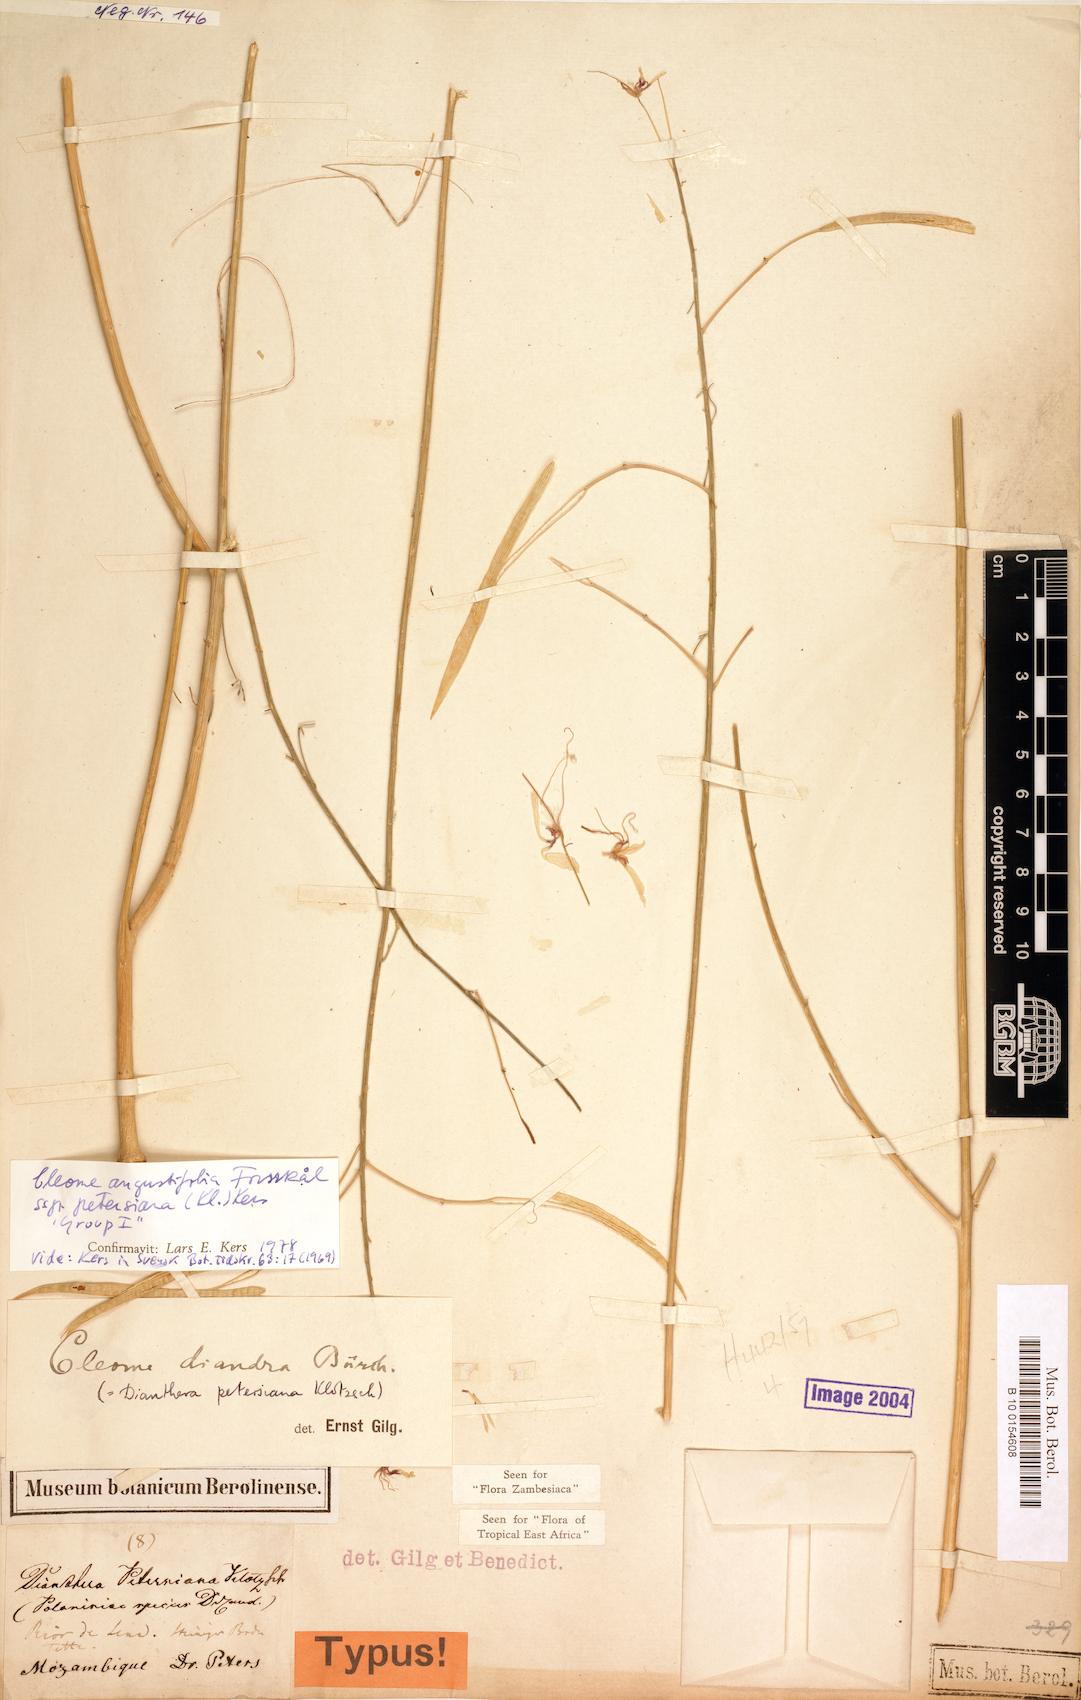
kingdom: Plantae
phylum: Tracheophyta
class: Magnoliopsida
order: Brassicales
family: Cleomaceae
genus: Coalisina
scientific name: Coalisina angustifolia
